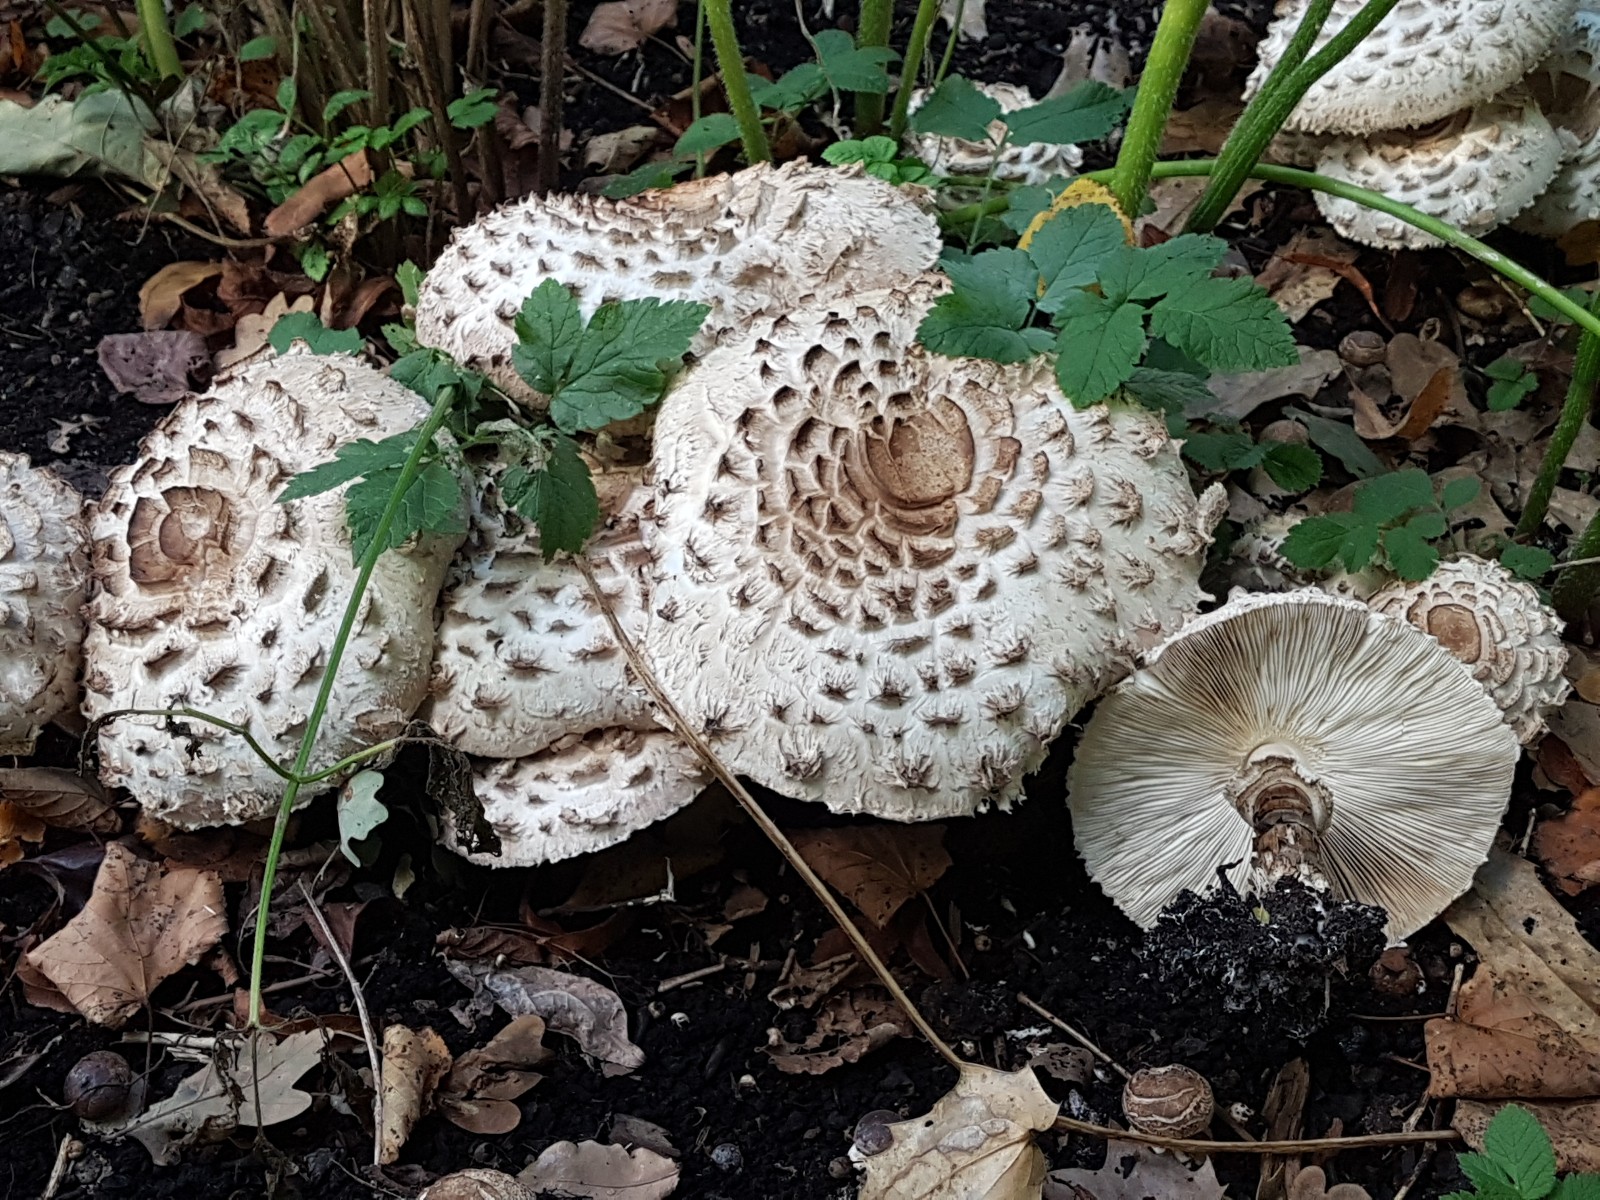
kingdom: Fungi
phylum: Basidiomycota
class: Agaricomycetes
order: Agaricales
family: Agaricaceae
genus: Chlorophyllum
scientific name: Chlorophyllum brunneum
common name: giftig rabarberhat
